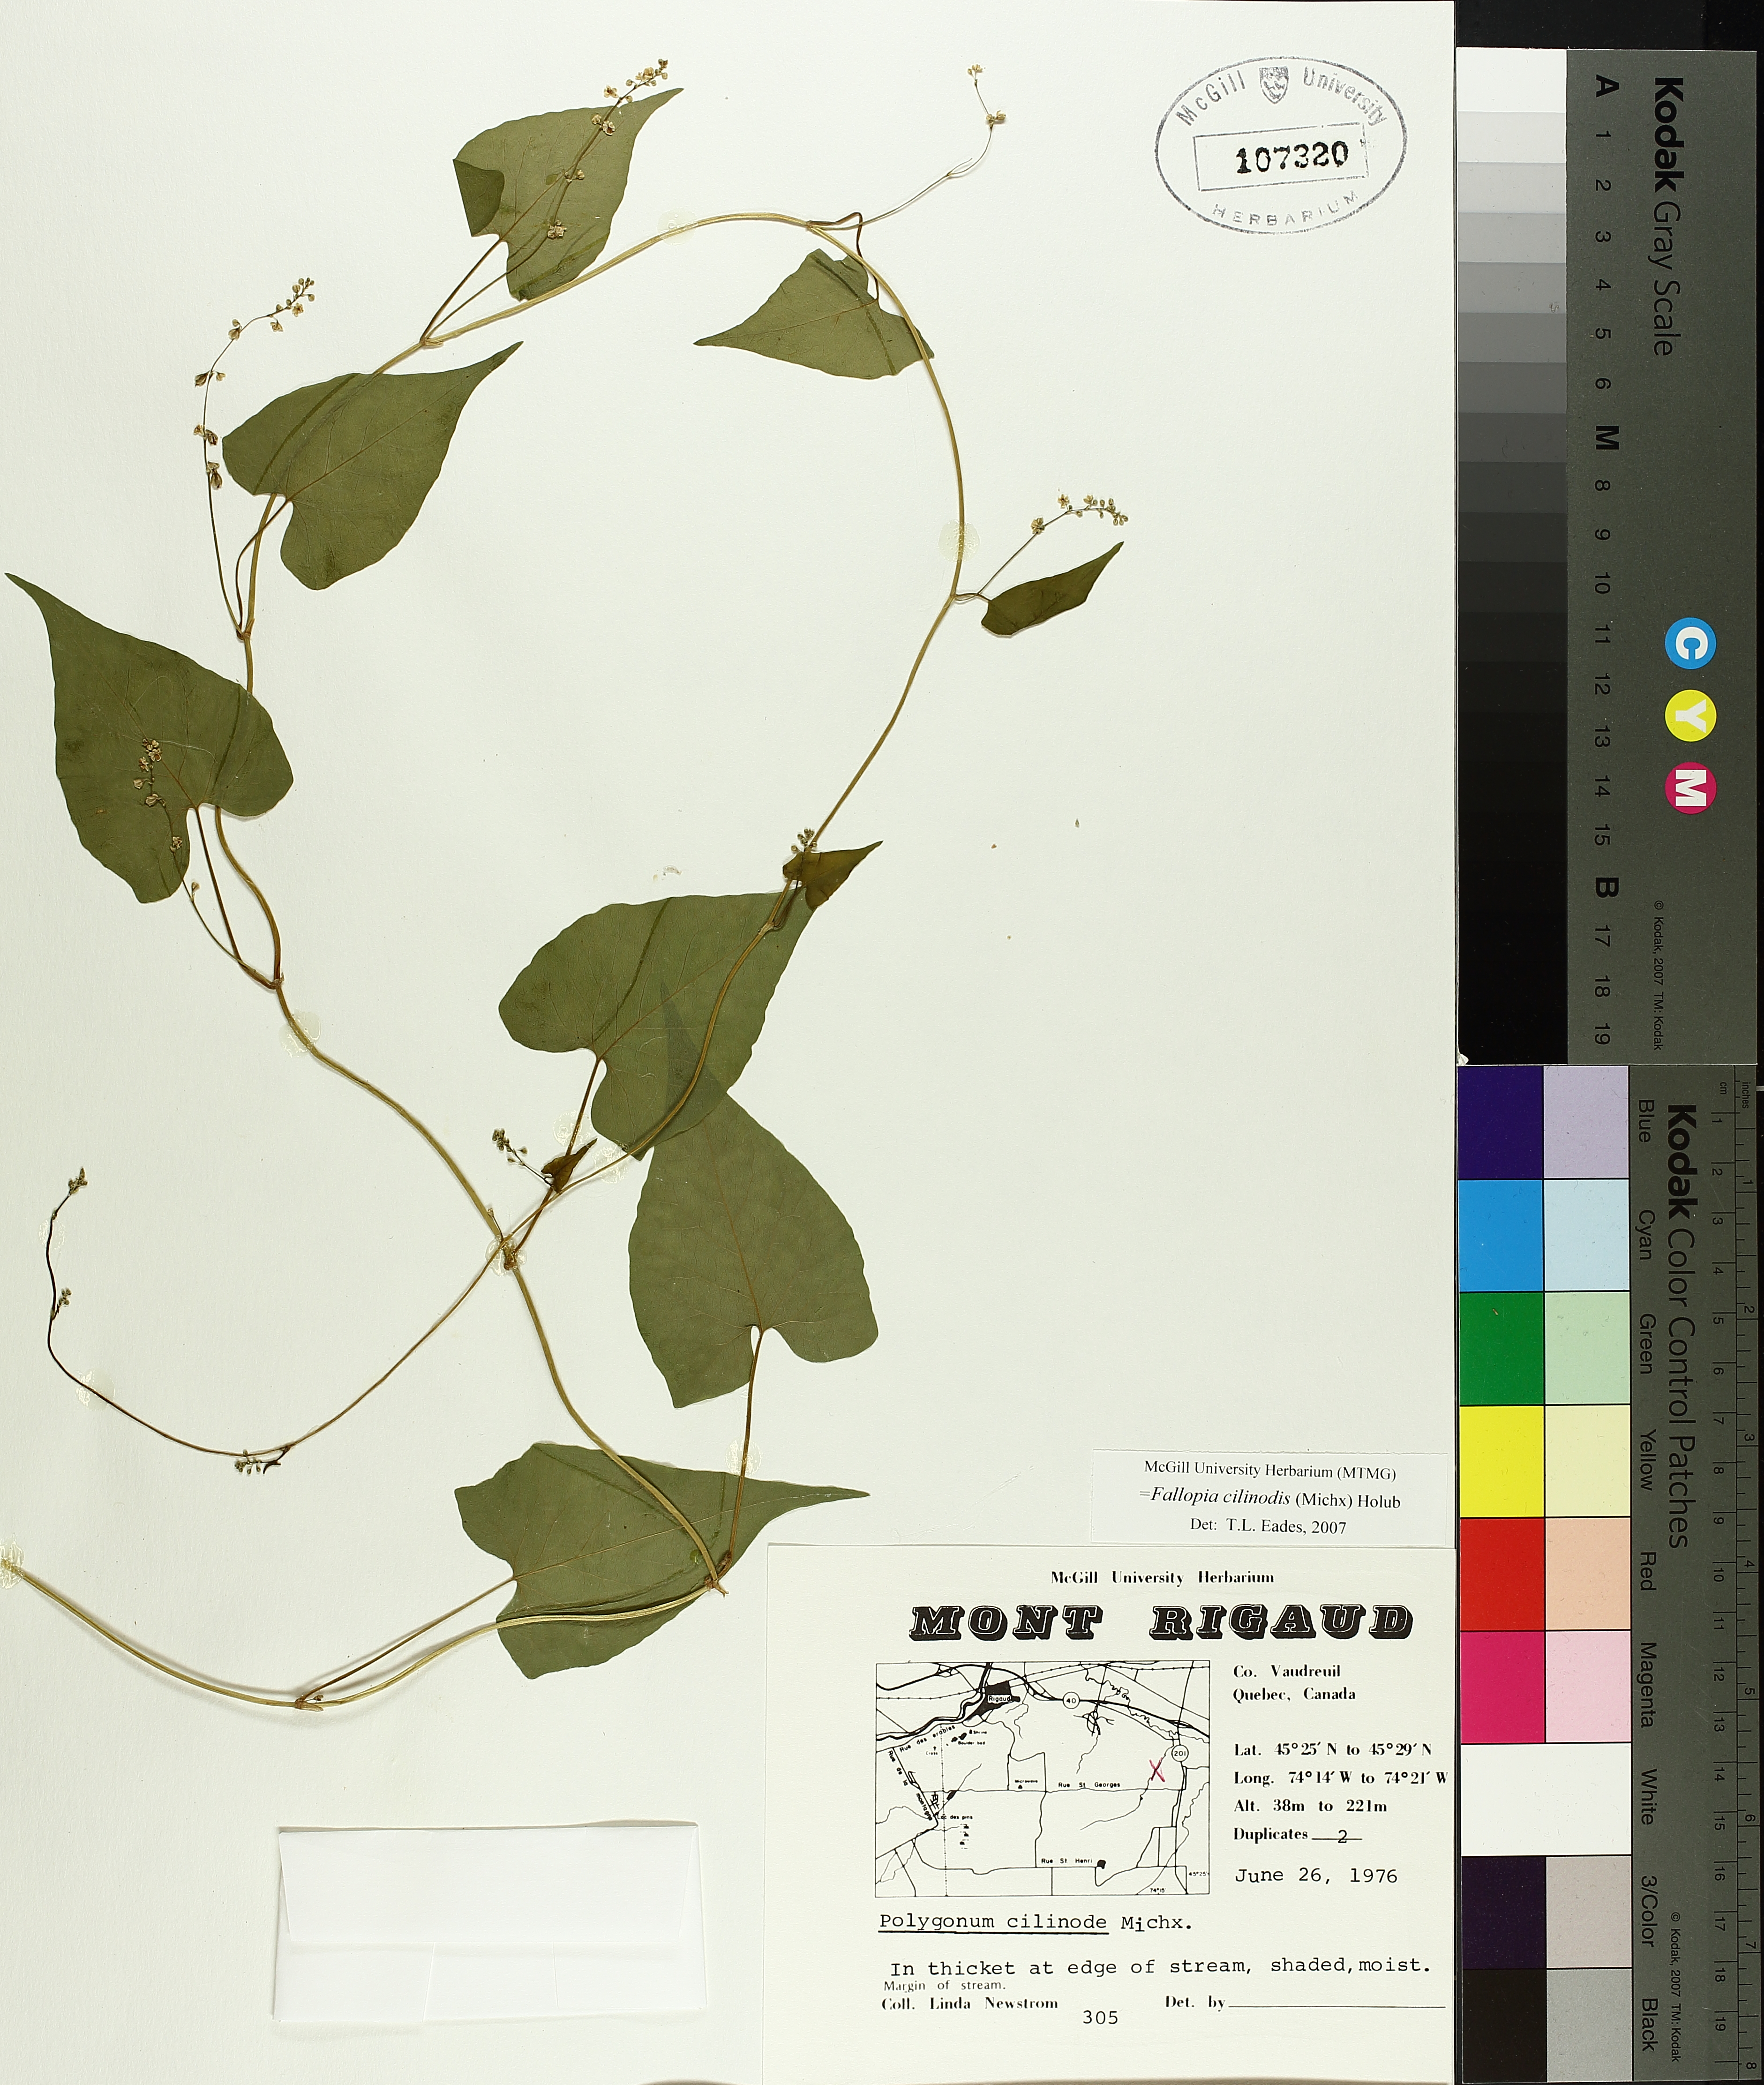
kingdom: Plantae
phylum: Tracheophyta
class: Magnoliopsida
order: Caryophyllales
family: Polygonaceae
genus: Parogonum
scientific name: Parogonum ciliinode
